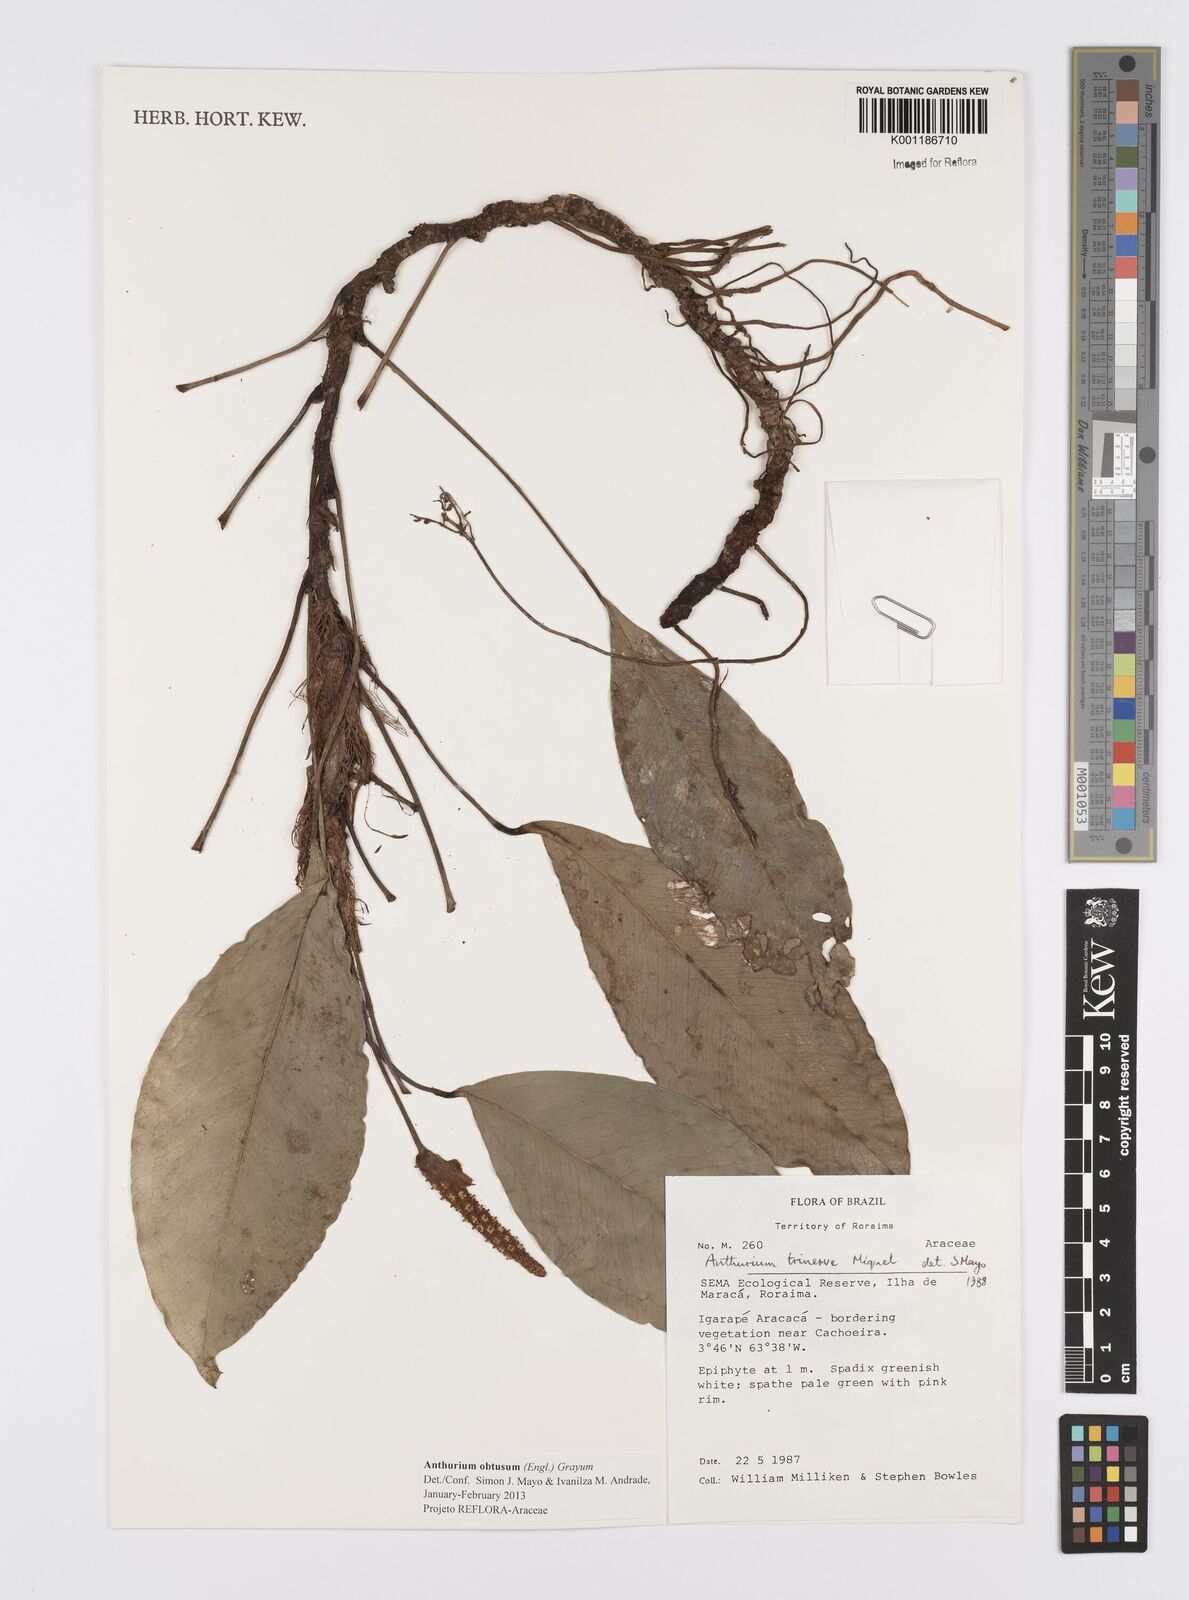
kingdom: Plantae
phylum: Tracheophyta
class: Liliopsida
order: Alismatales
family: Araceae
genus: Anthurium
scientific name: Anthurium obtusum
